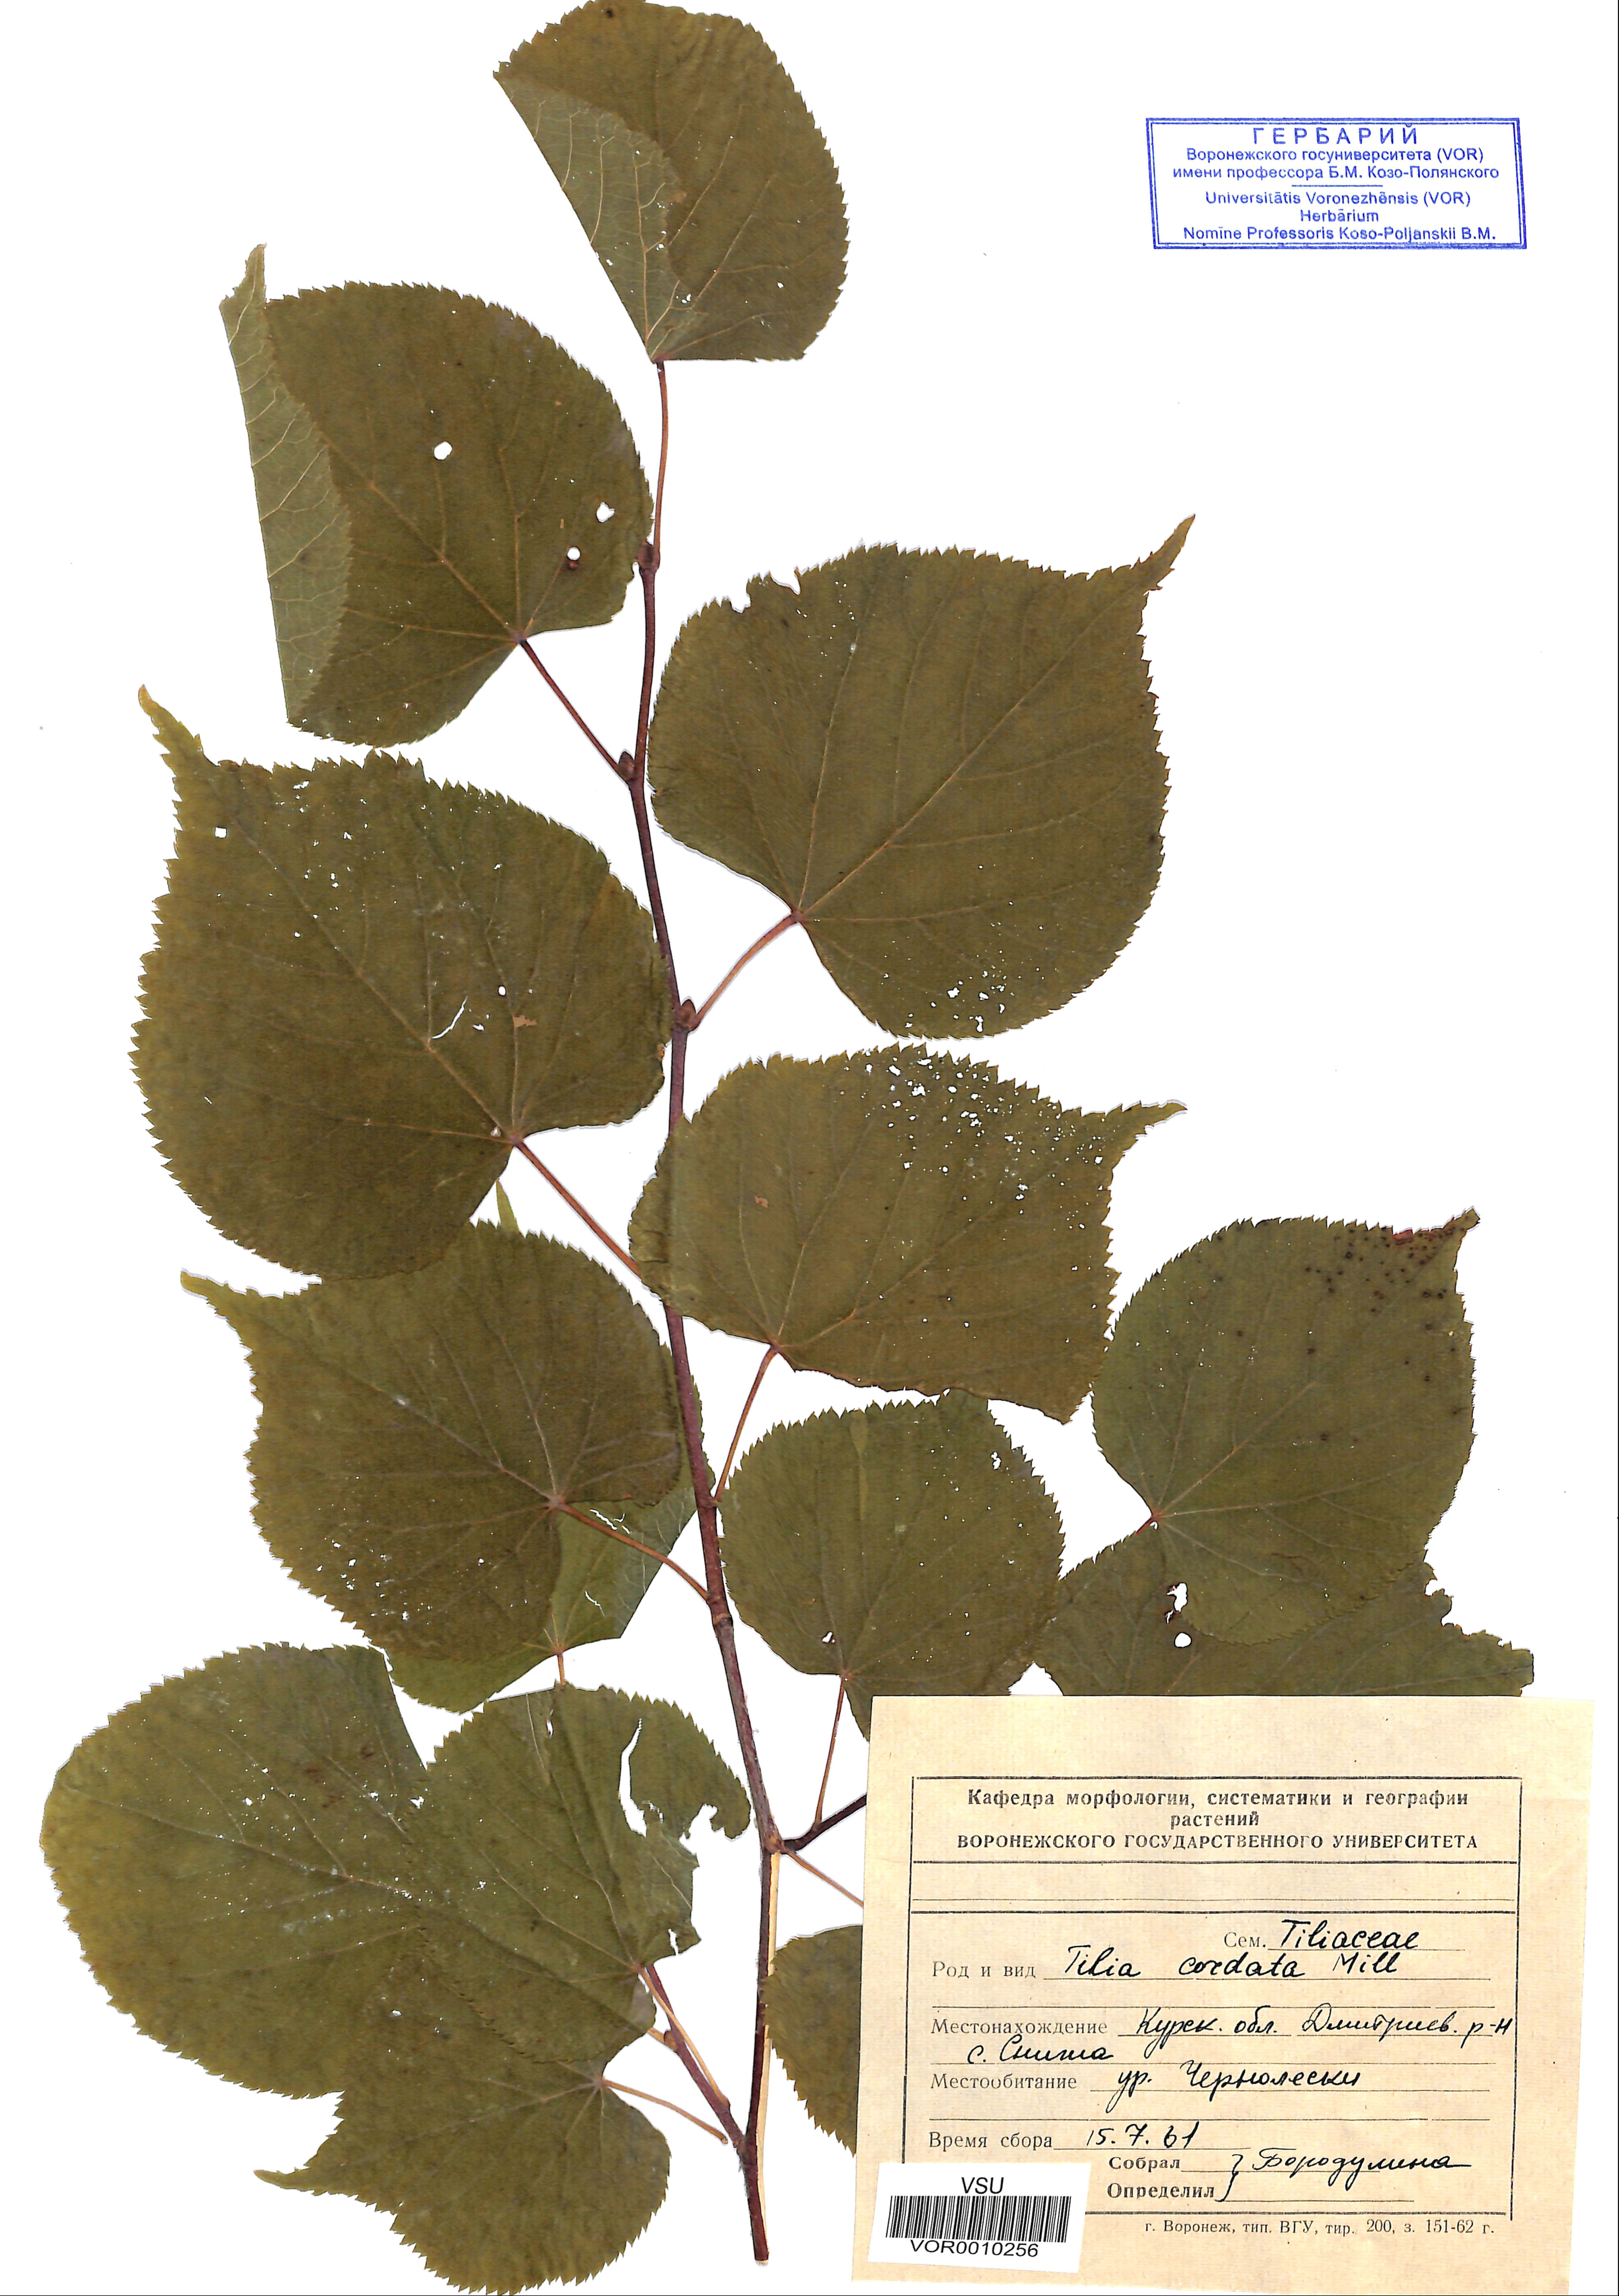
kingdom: Plantae
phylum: Tracheophyta
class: Magnoliopsida
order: Malvales
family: Malvaceae
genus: Tilia
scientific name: Tilia cordata
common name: Small-leaved lime
